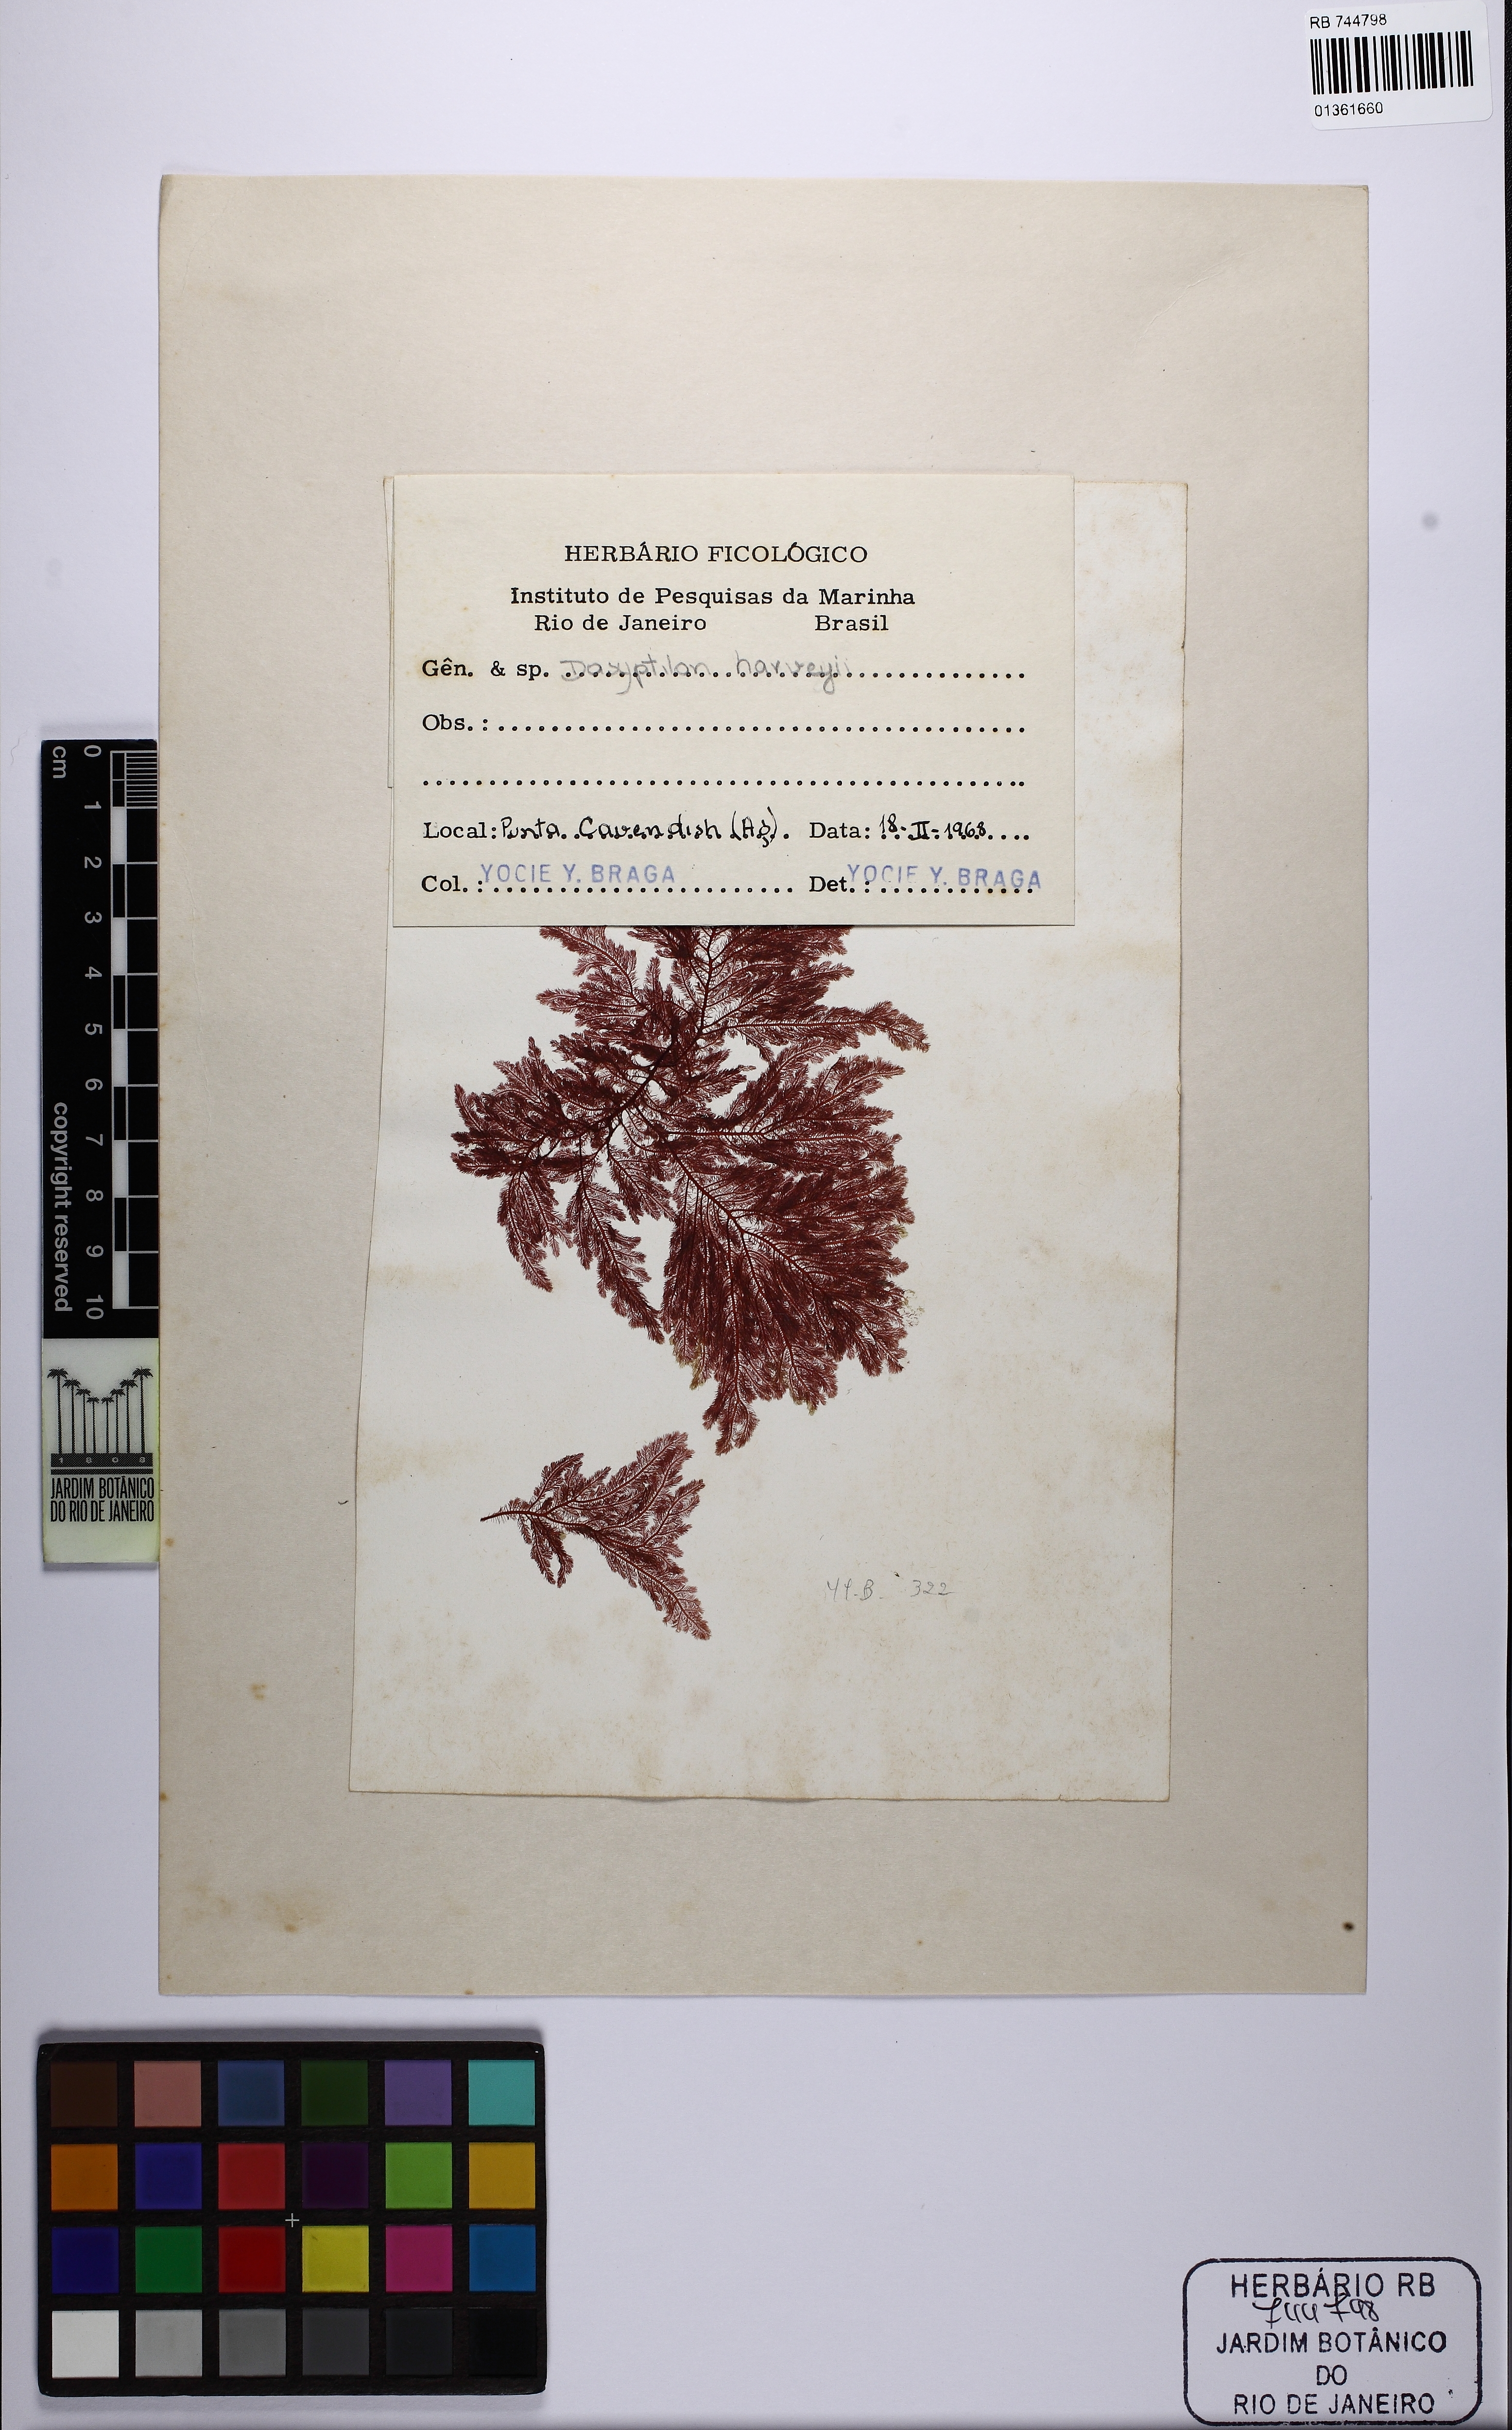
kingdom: Plantae
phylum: Rhodophyta
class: Florideophyceae
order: Ceramiales
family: Ceramiaceae
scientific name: Ceramiaceae
